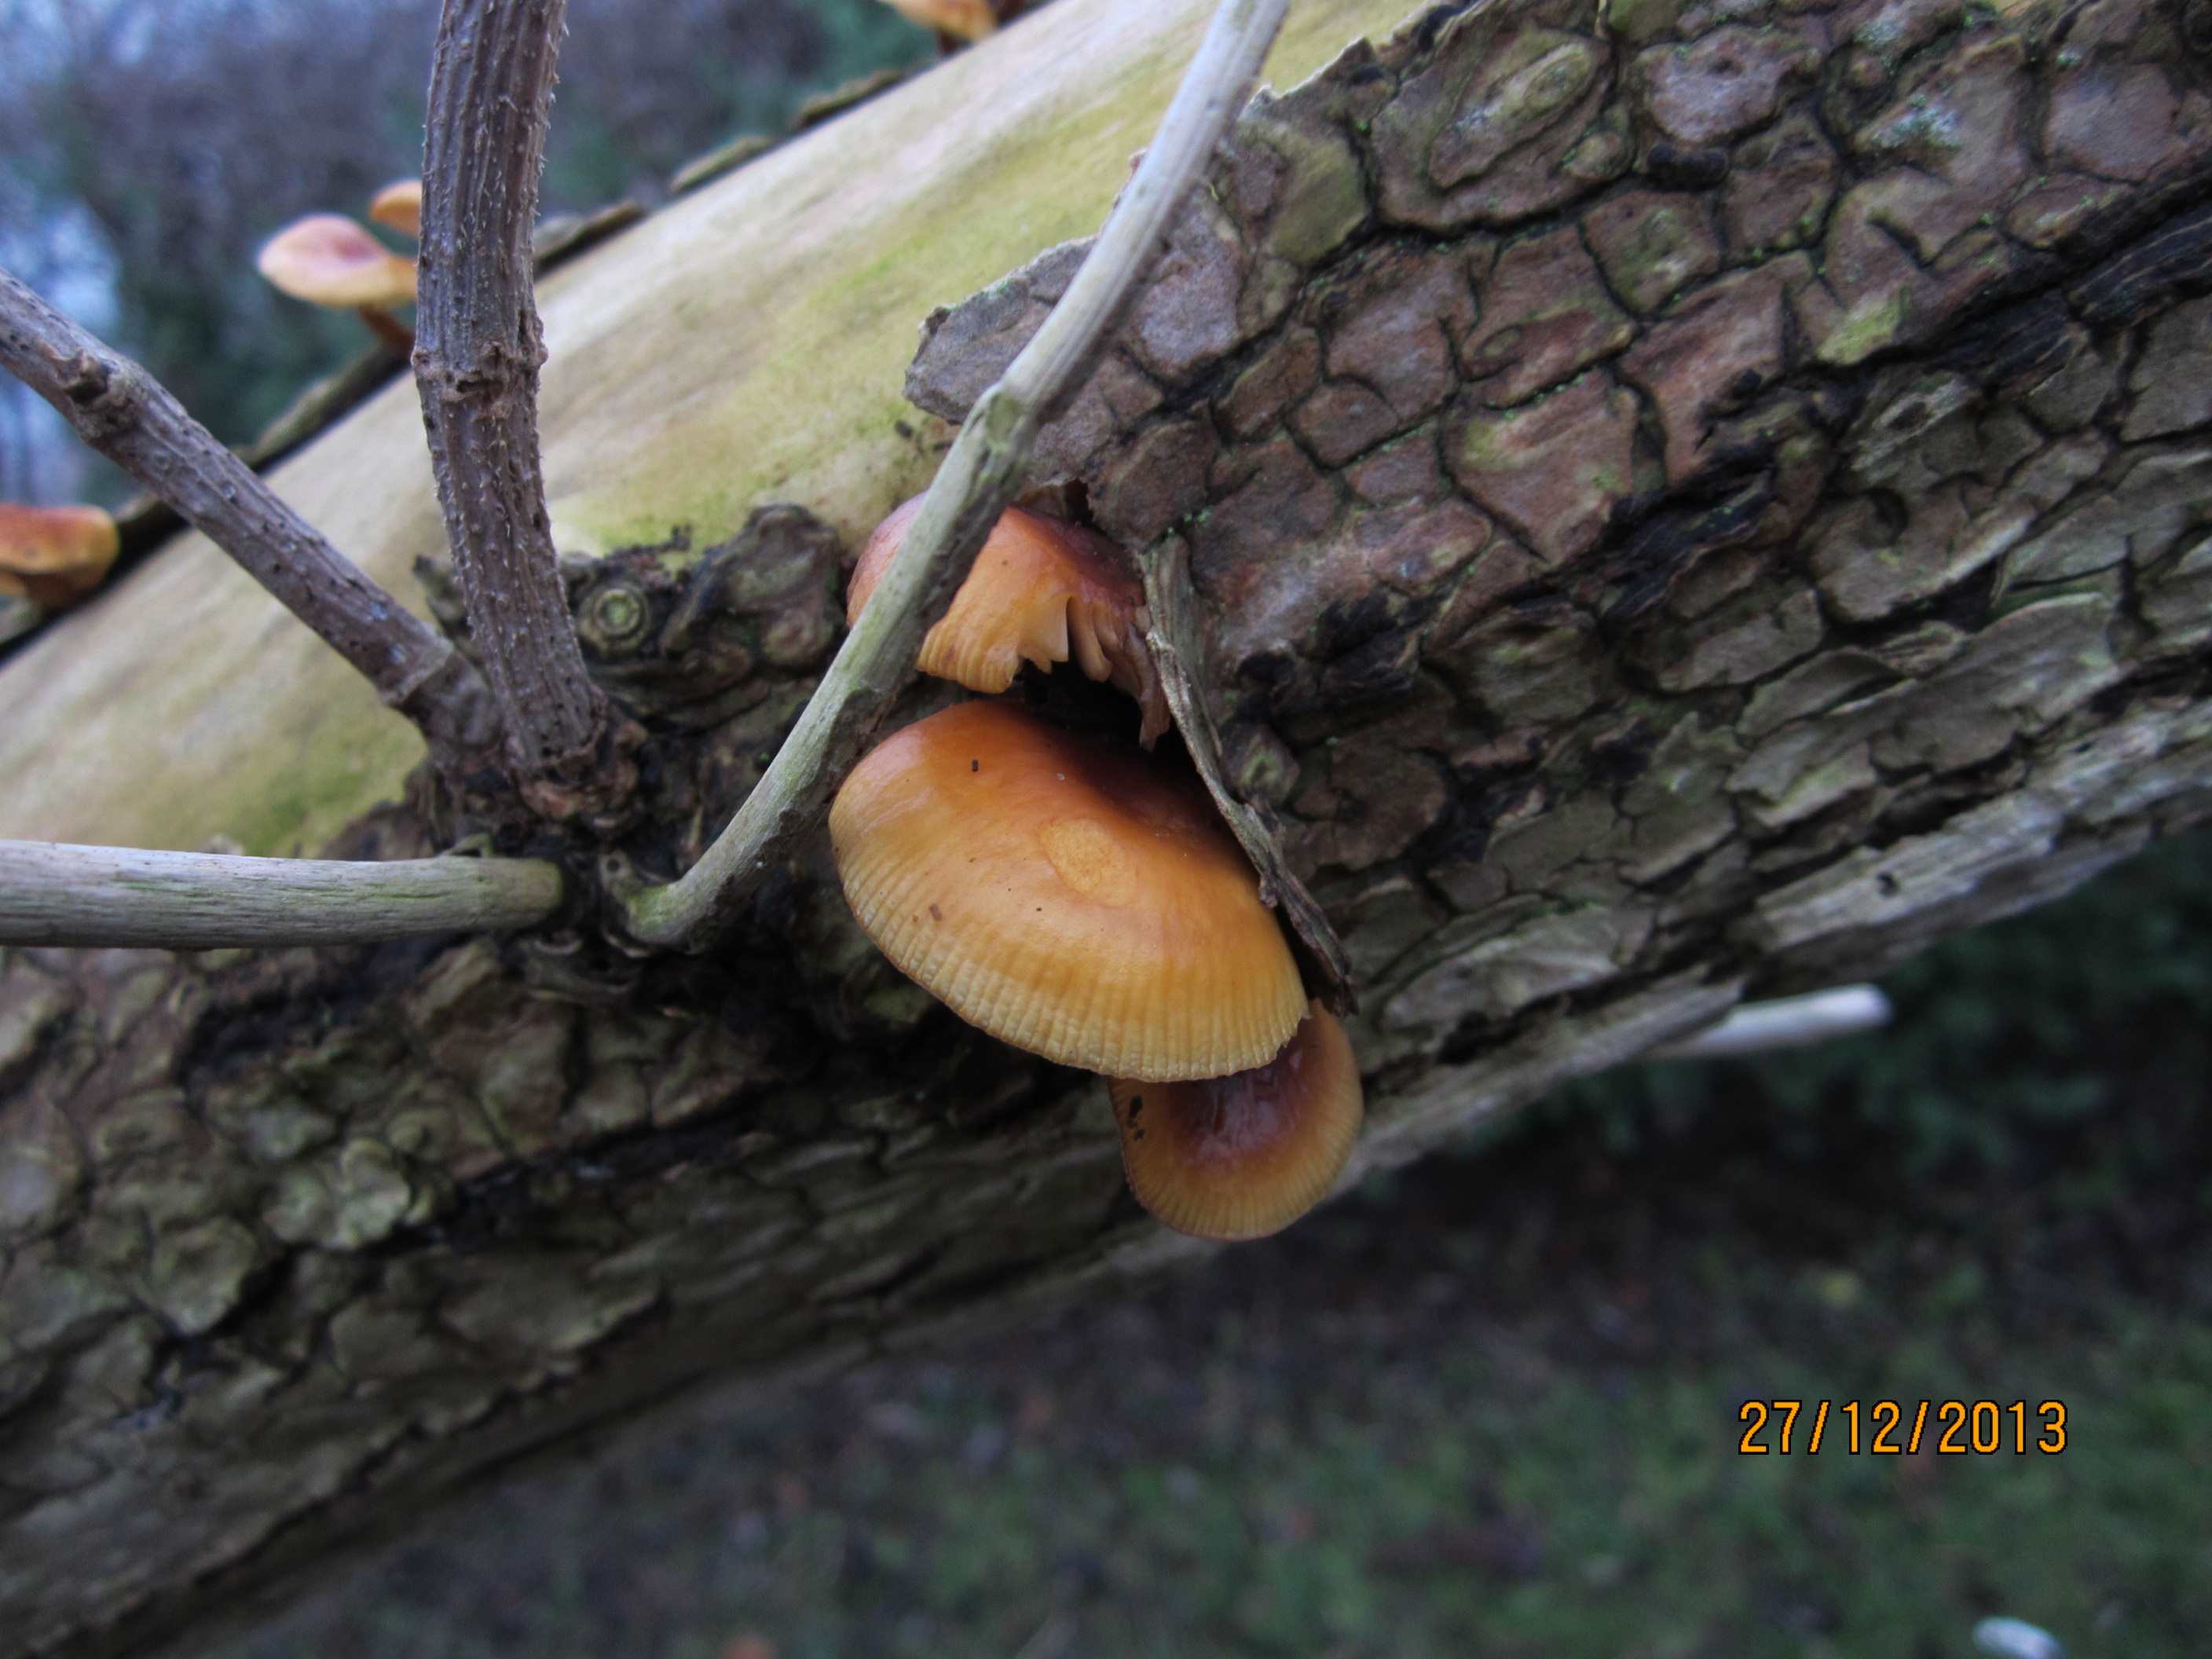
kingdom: Fungi
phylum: Basidiomycota
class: Agaricomycetes
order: Agaricales
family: Physalacriaceae
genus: Flammulina
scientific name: Flammulina velutipes
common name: gul fløjlsfod
